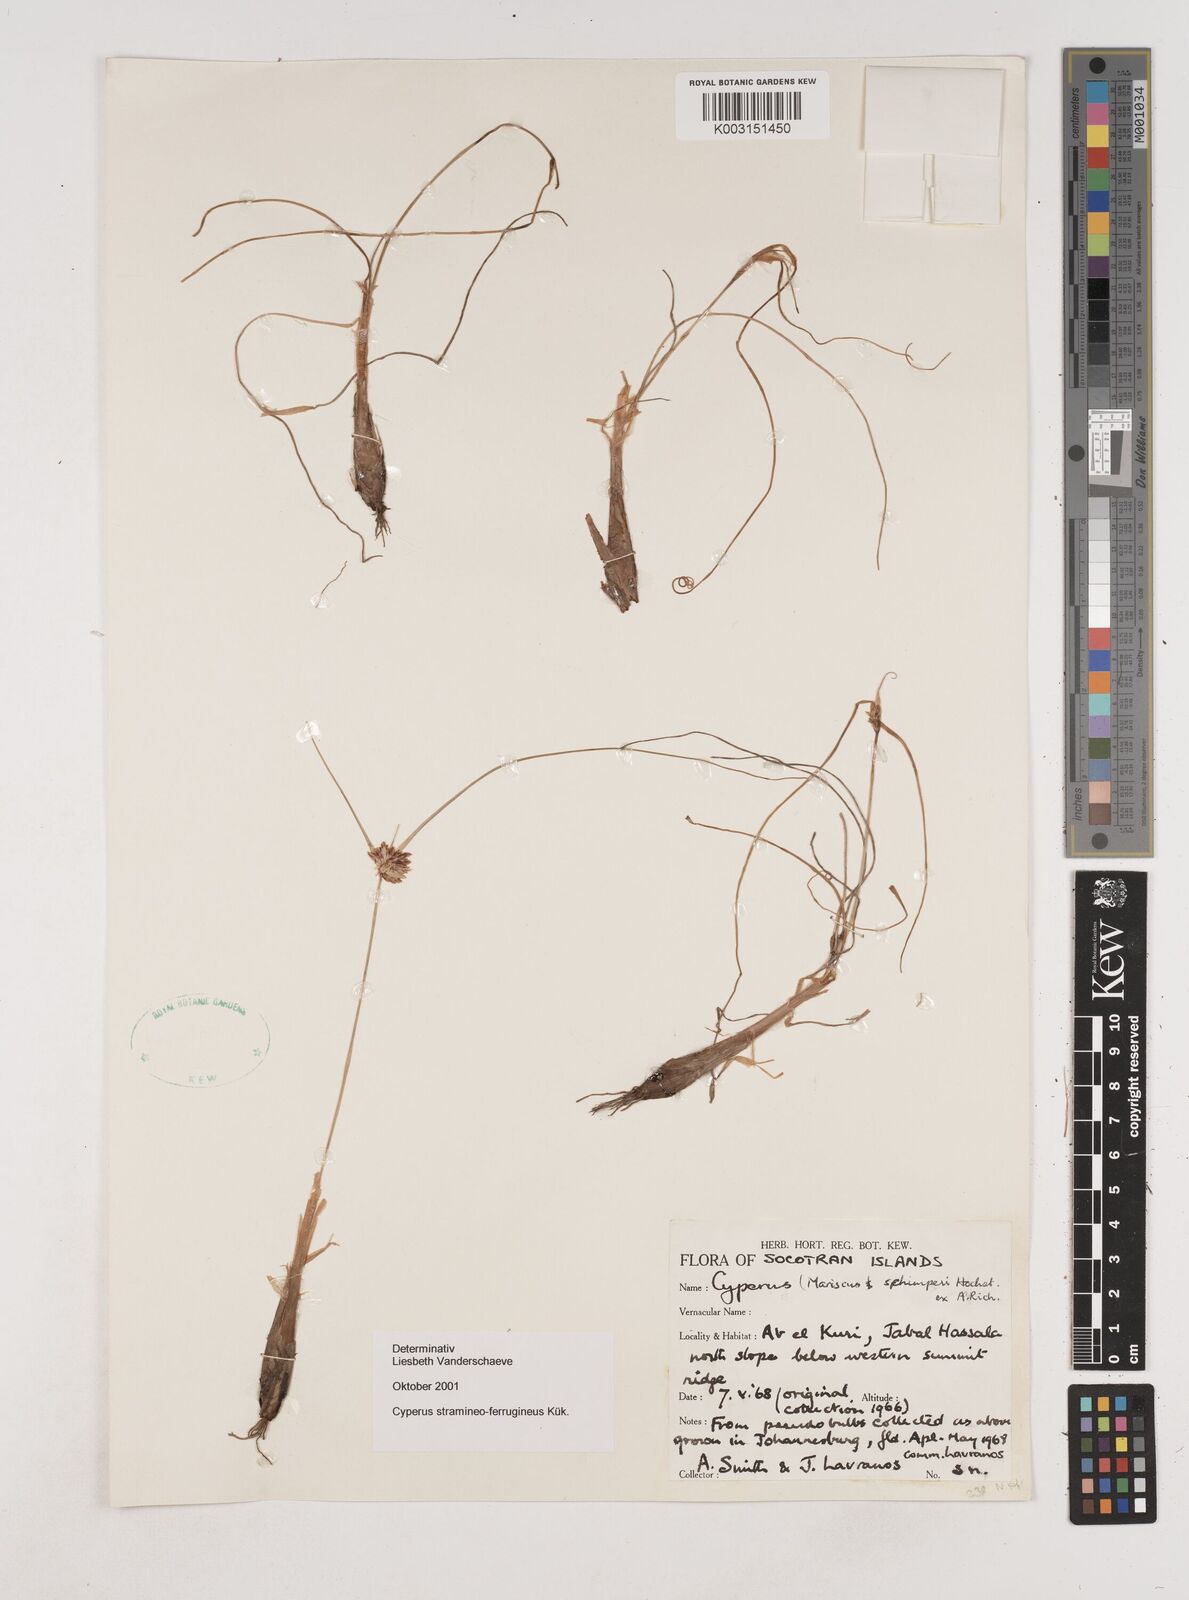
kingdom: Plantae
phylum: Tracheophyta
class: Liliopsida
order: Poales
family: Cyperaceae
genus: Cyperus
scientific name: Cyperus stramineoferrugineus
